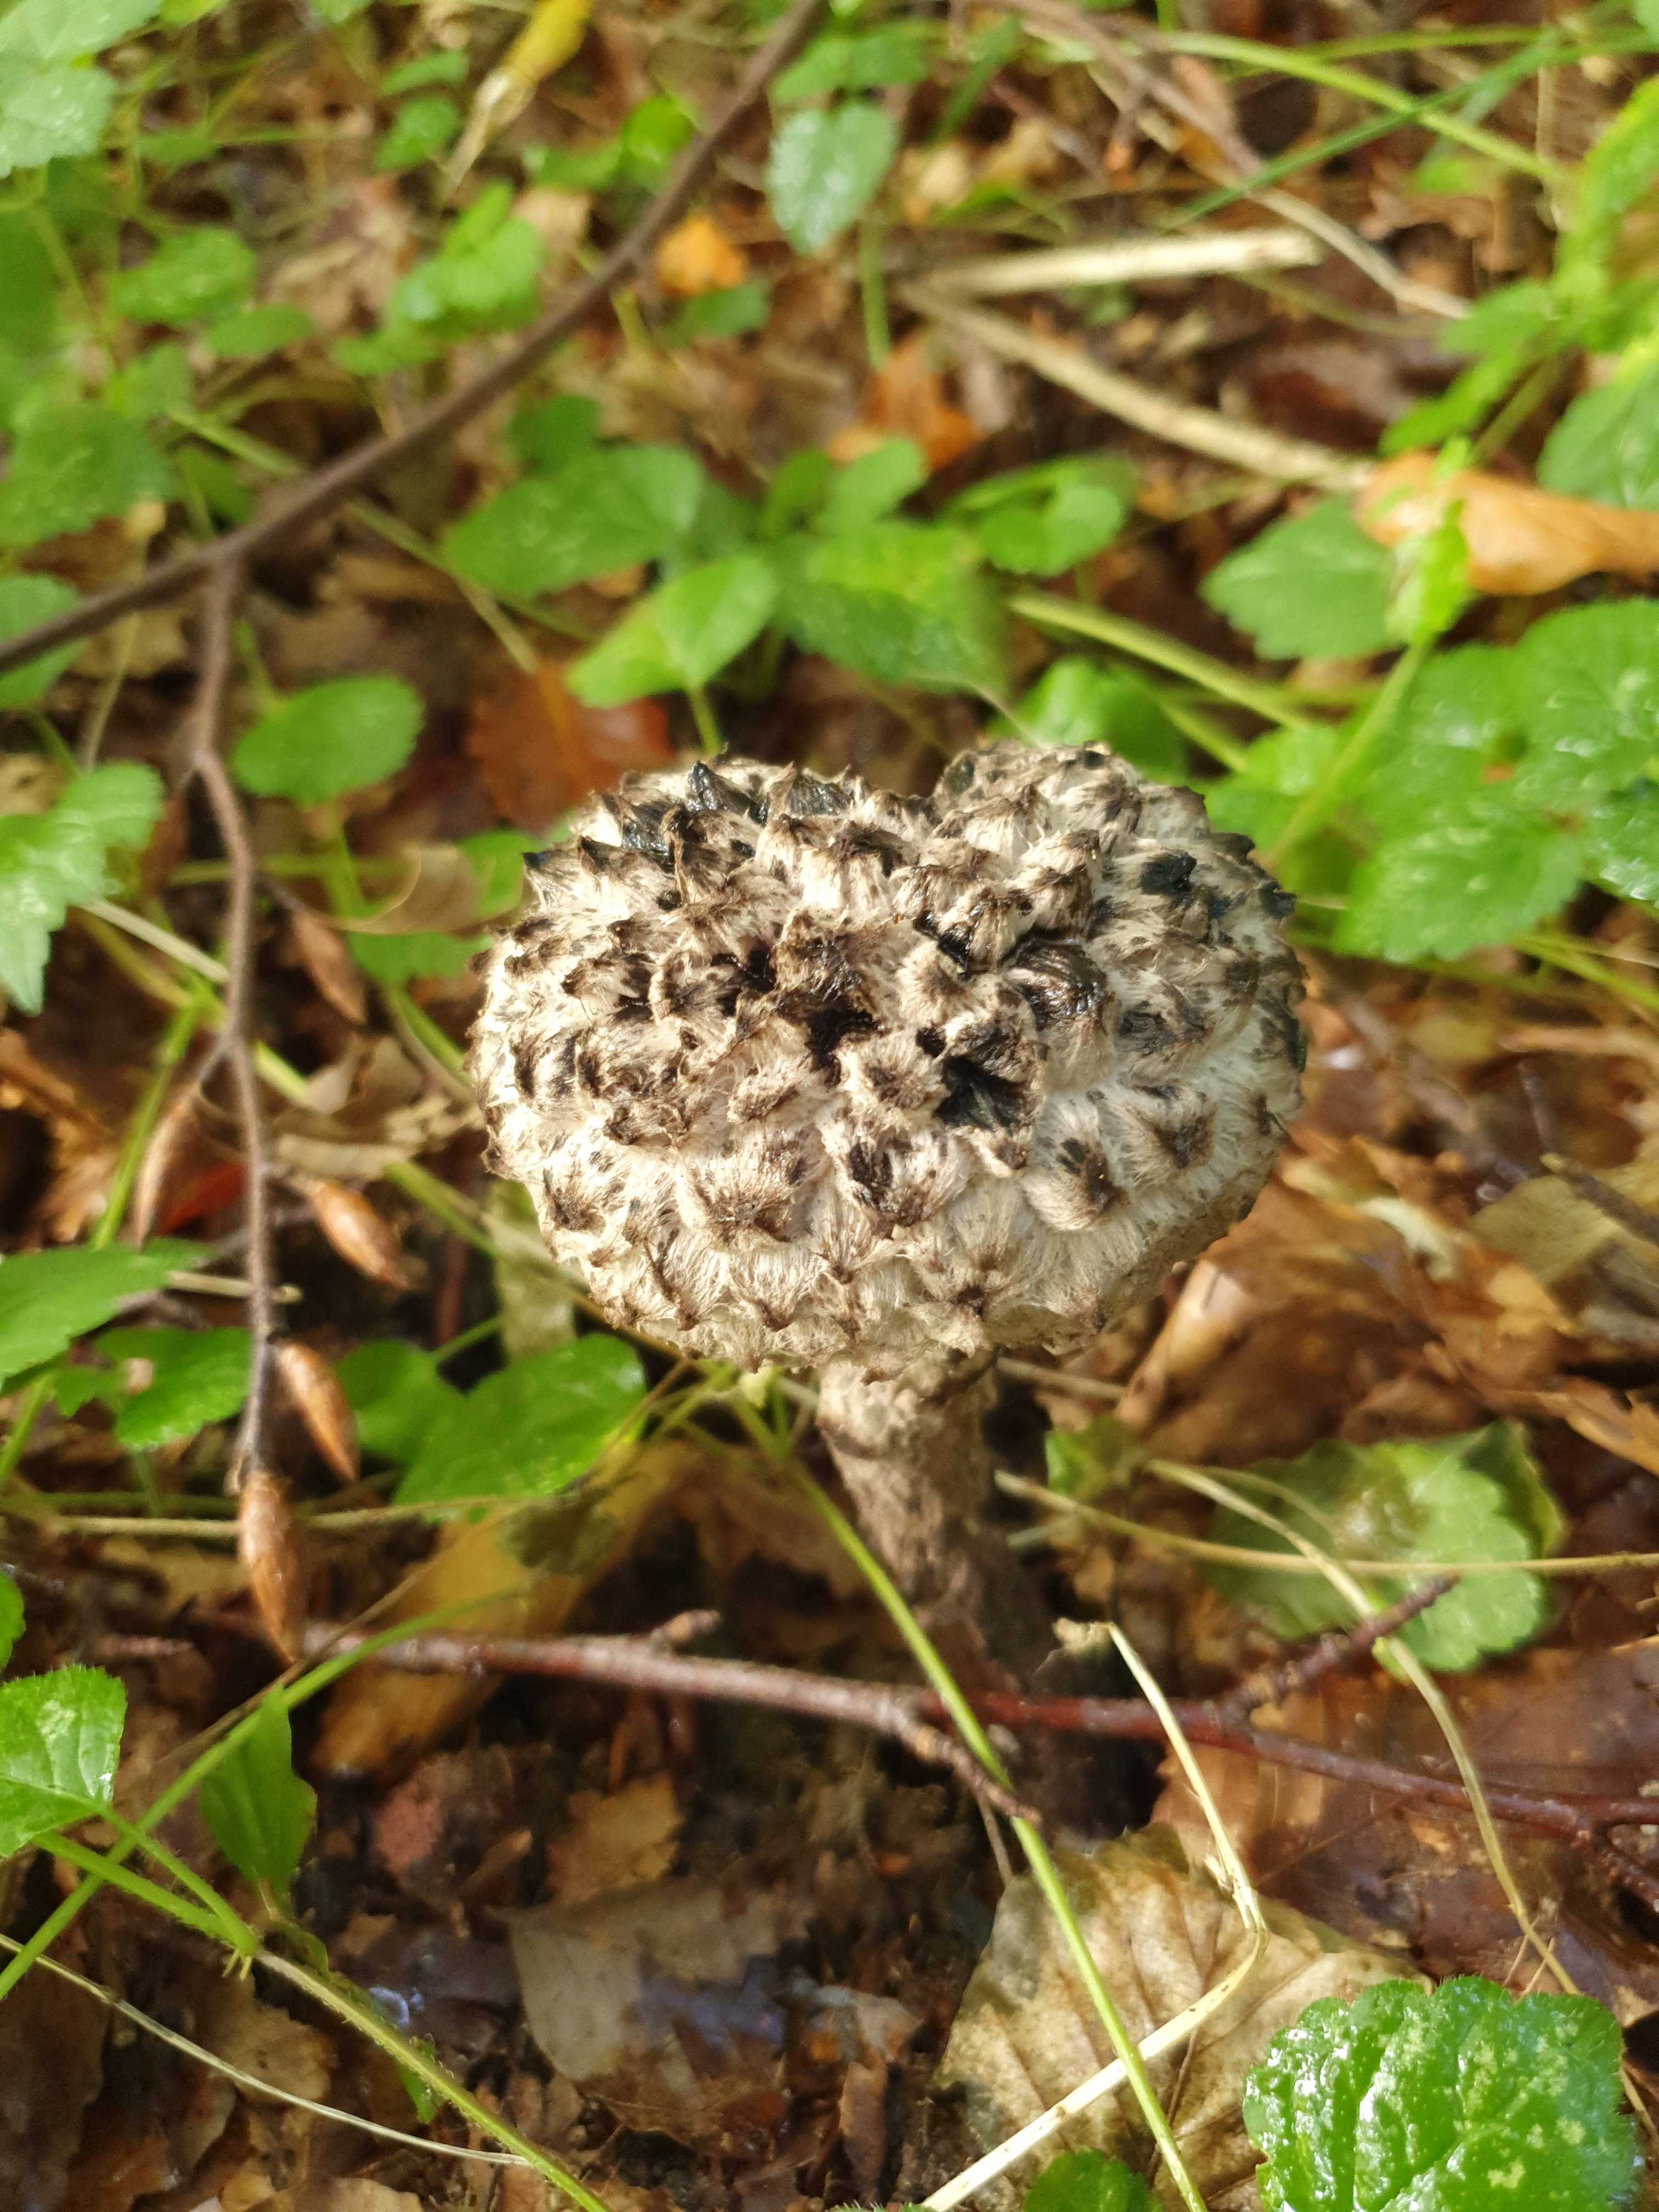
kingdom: Fungi
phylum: Basidiomycota
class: Agaricomycetes
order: Boletales
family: Boletaceae
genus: Strobilomyces
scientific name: Strobilomyces strobilaceus
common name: koglerørhat
